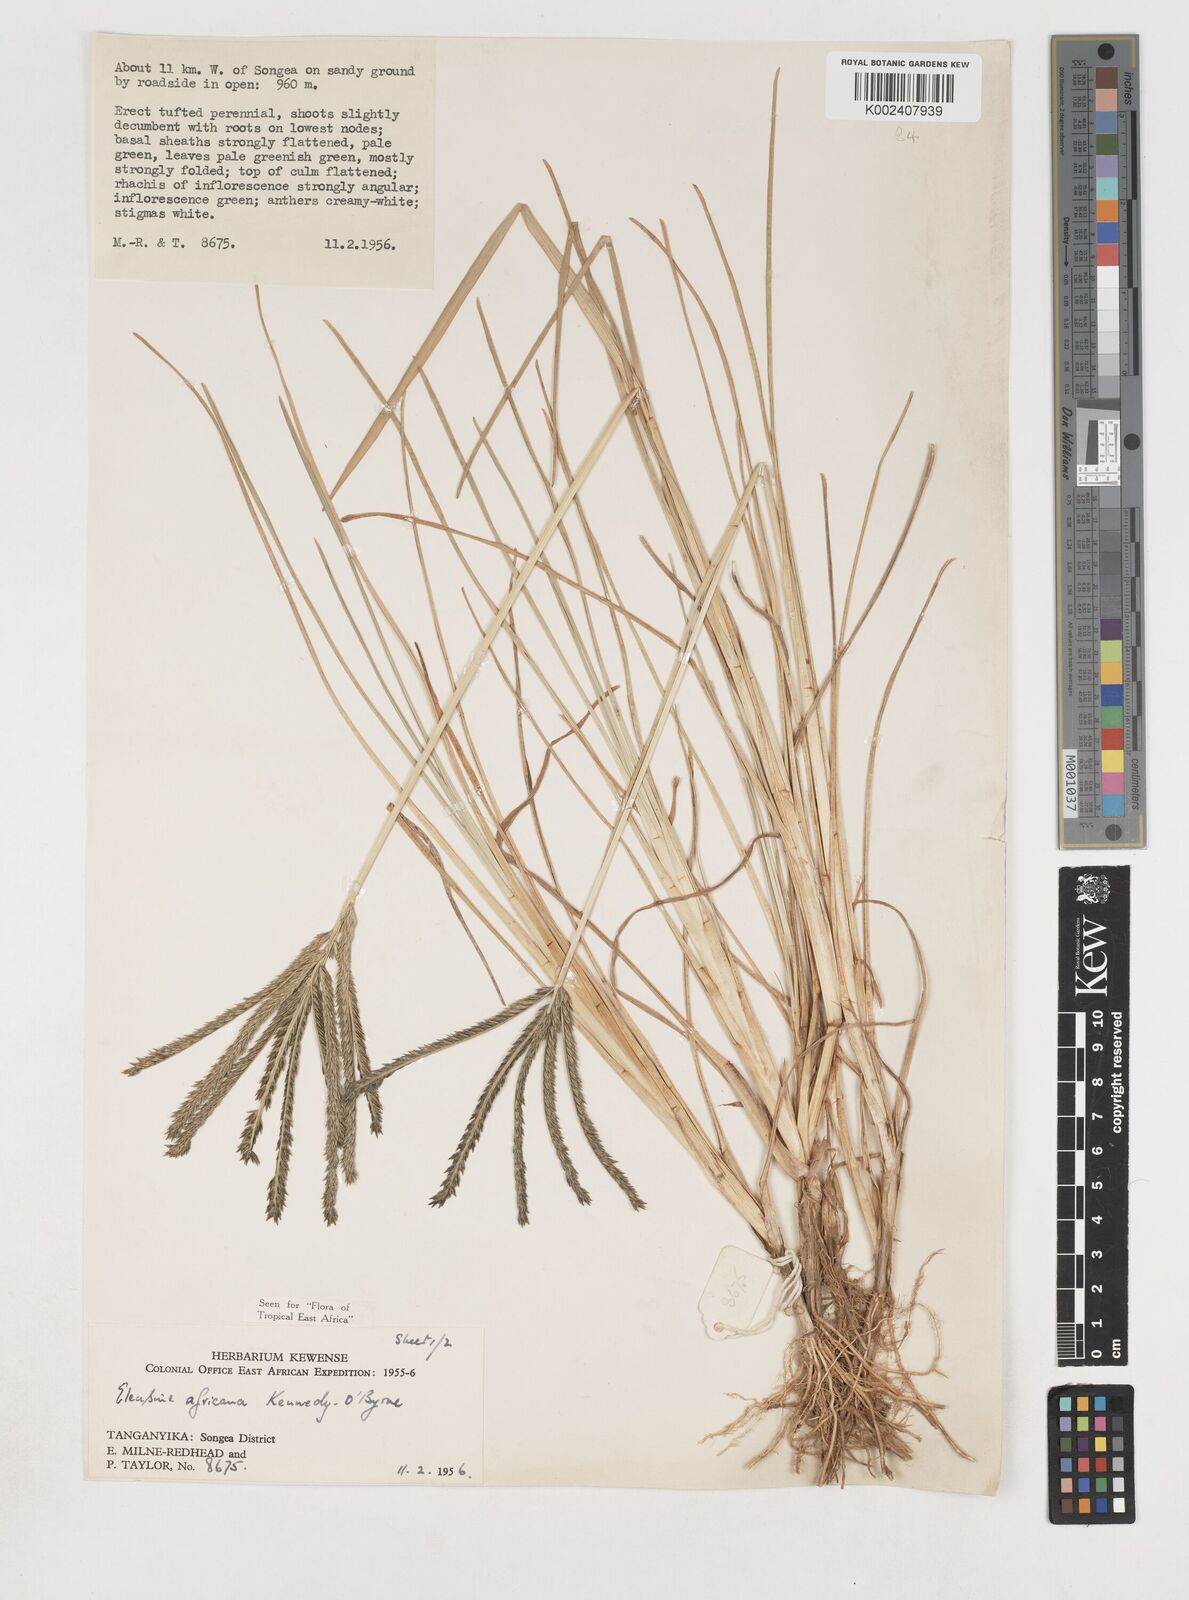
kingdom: Plantae
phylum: Tracheophyta
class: Liliopsida
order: Poales
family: Poaceae
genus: Eleusine
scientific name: Eleusine africana
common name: Wild african finger millet
